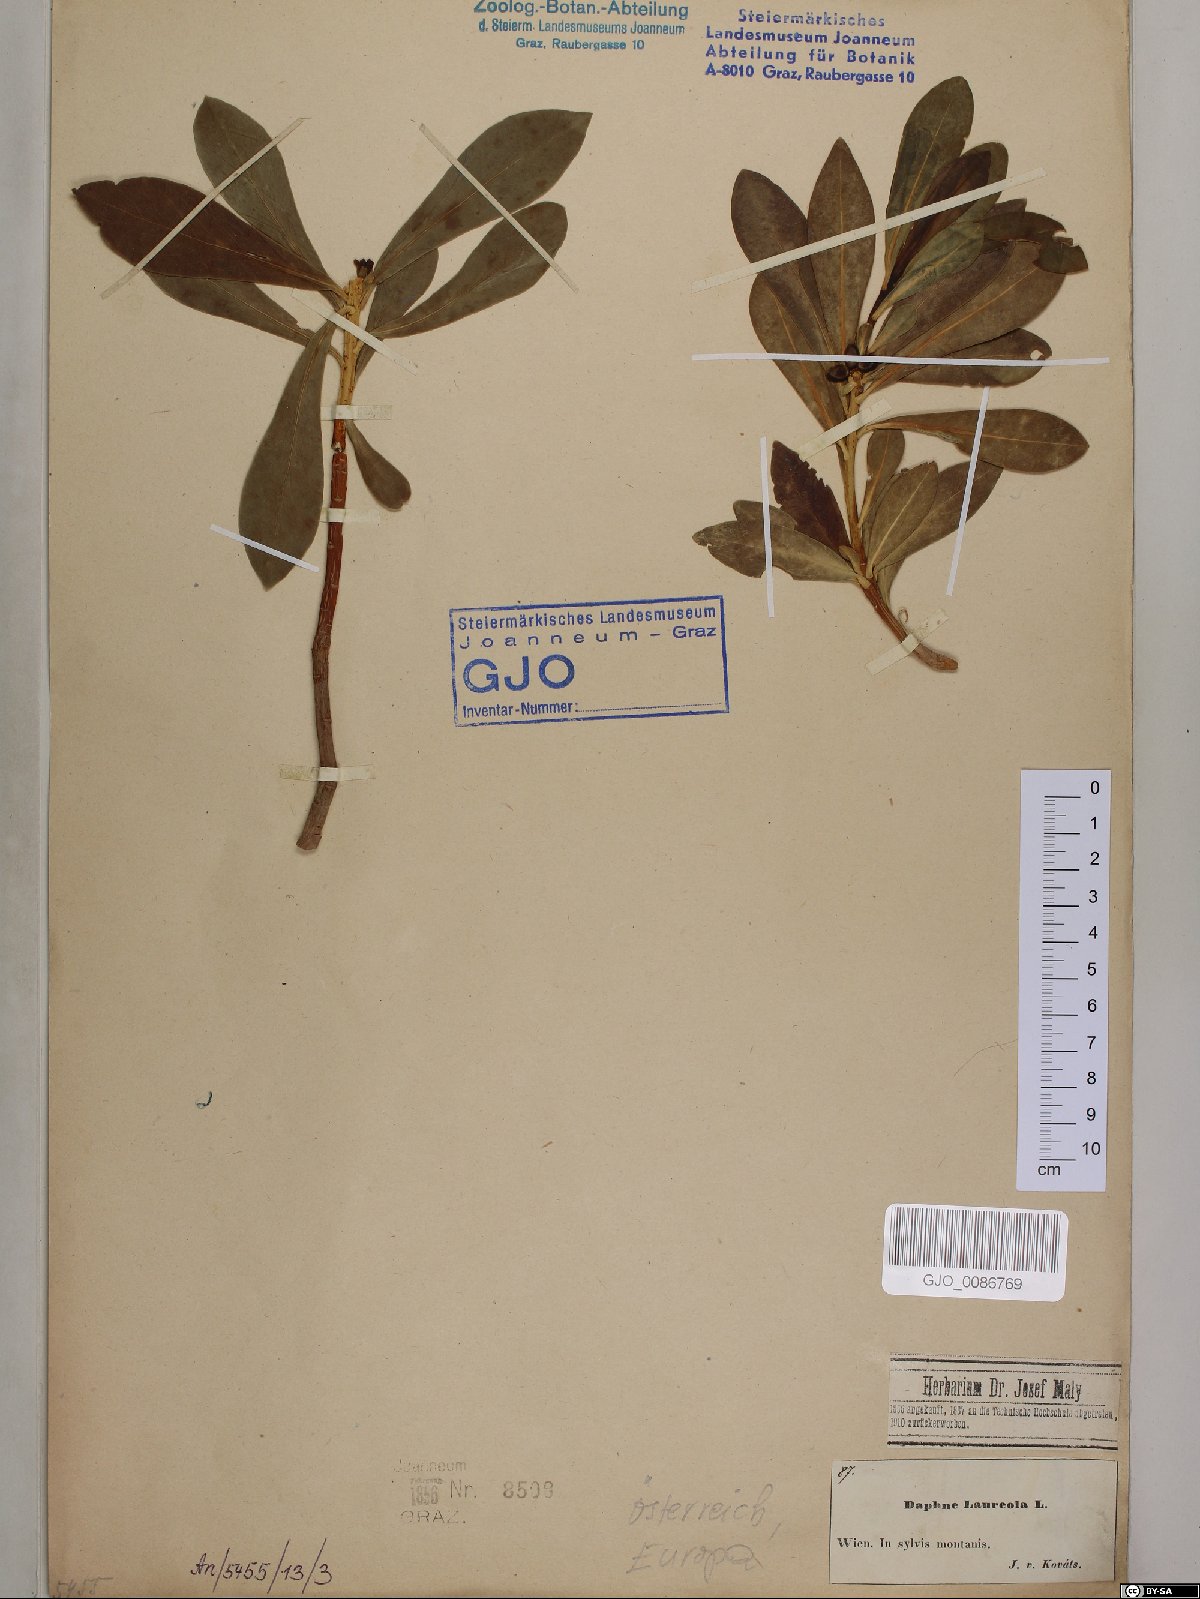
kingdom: Plantae
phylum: Tracheophyta
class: Magnoliopsida
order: Malvales
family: Thymelaeaceae
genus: Daphne
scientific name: Daphne laureola
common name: Spurge-laurel
